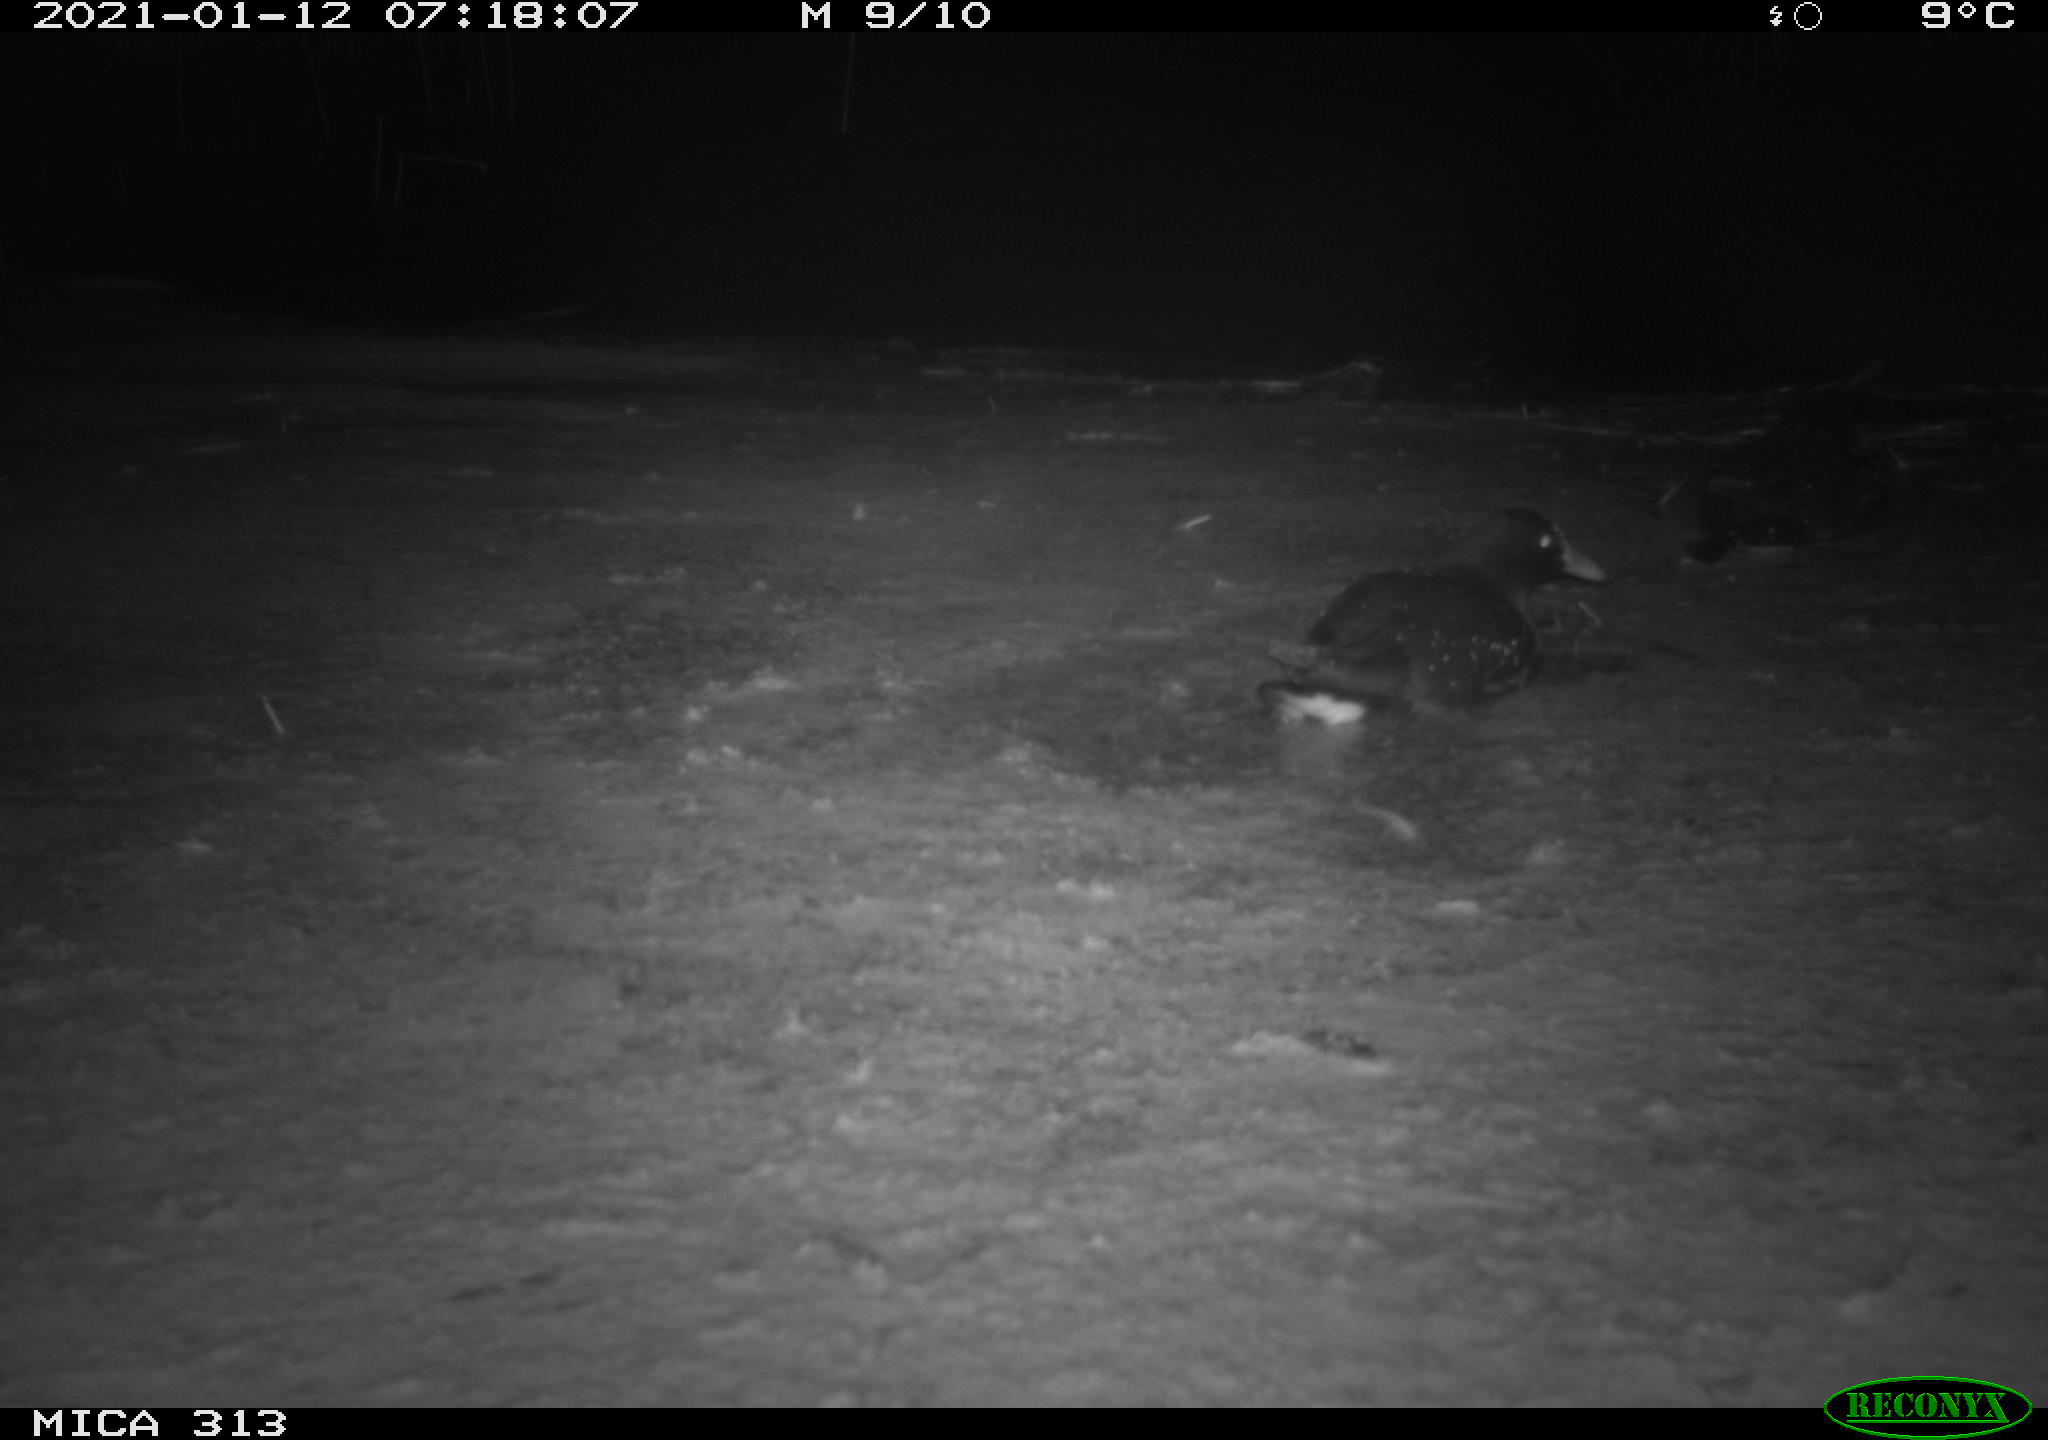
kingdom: Animalia
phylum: Chordata
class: Aves
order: Gruiformes
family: Rallidae
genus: Gallinula
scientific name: Gallinula chloropus
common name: Common moorhen
